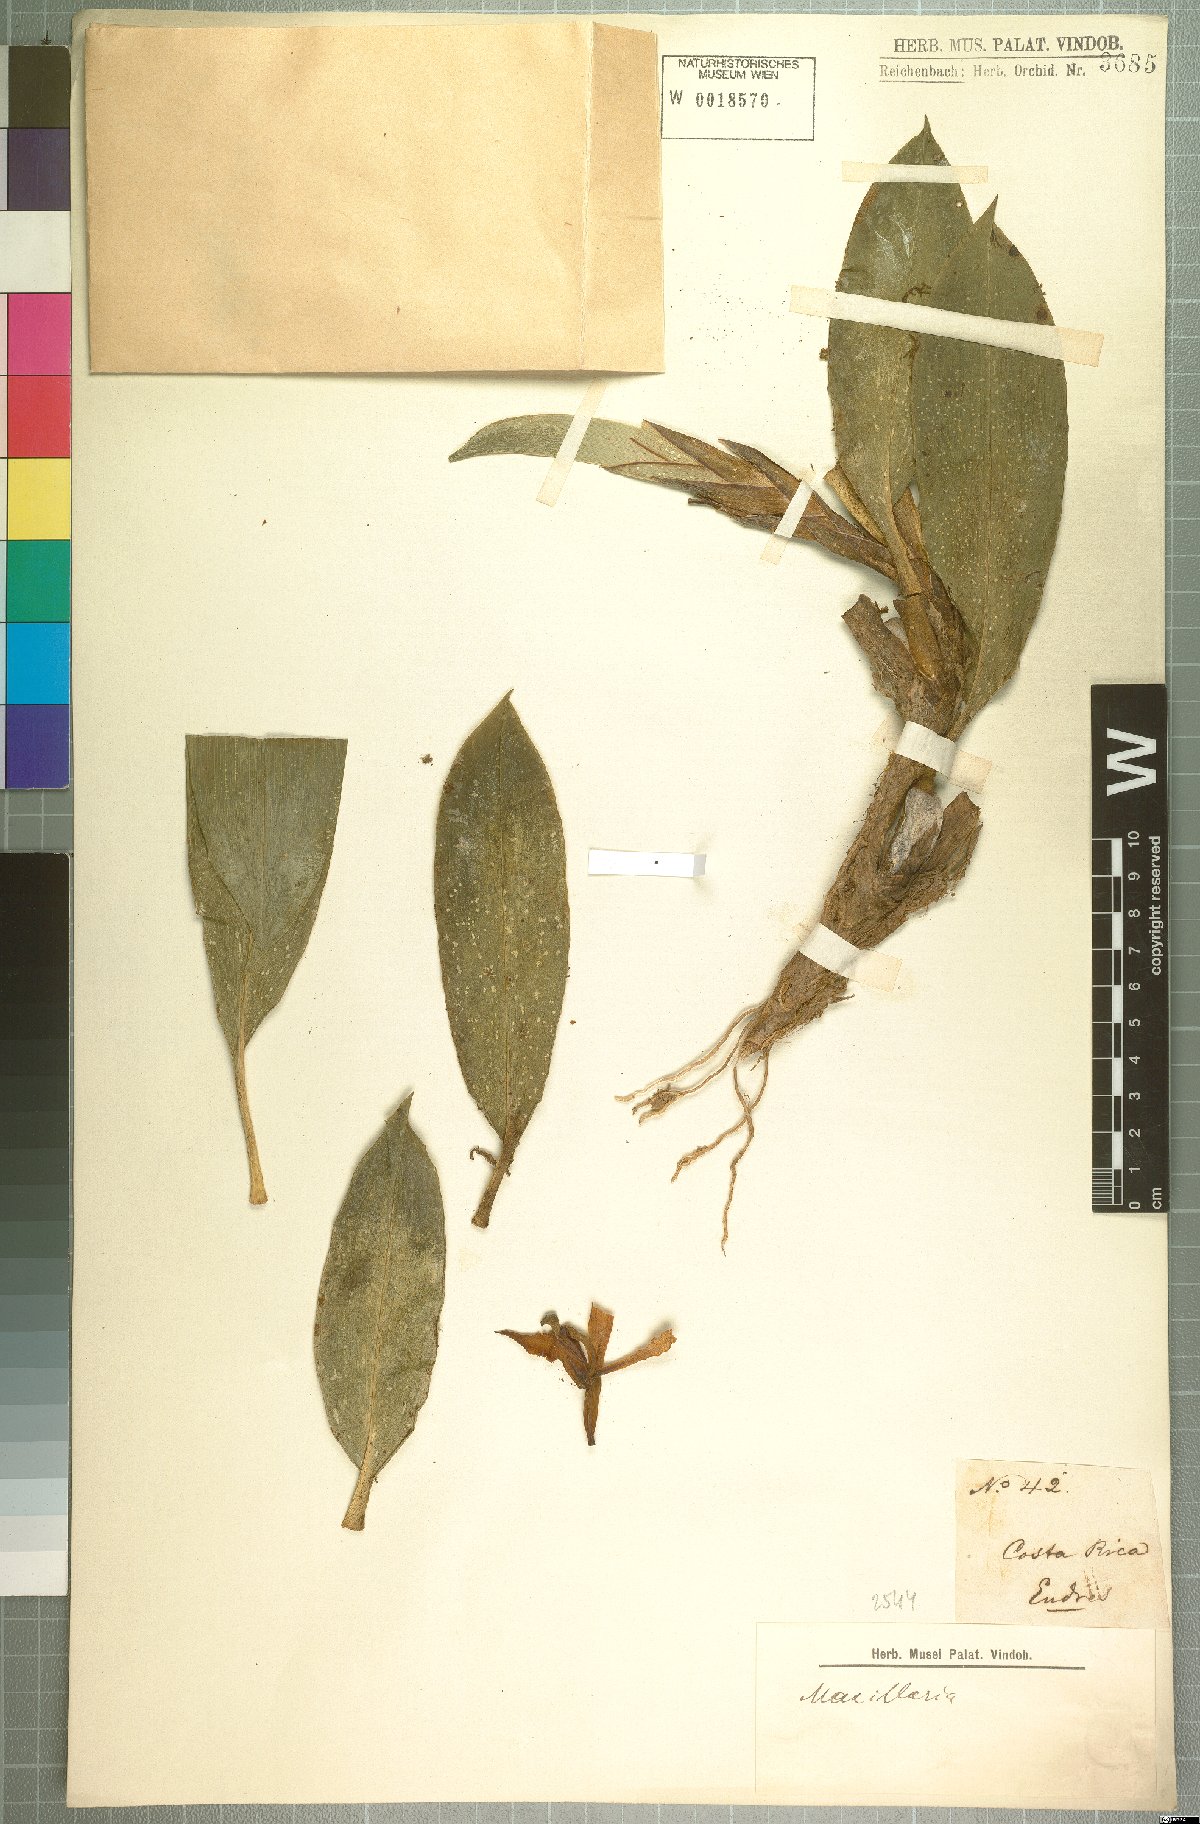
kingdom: Plantae
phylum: Tracheophyta
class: Liliopsida
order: Asparagales
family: Orchidaceae
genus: Maxillaria
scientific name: Maxillaria
